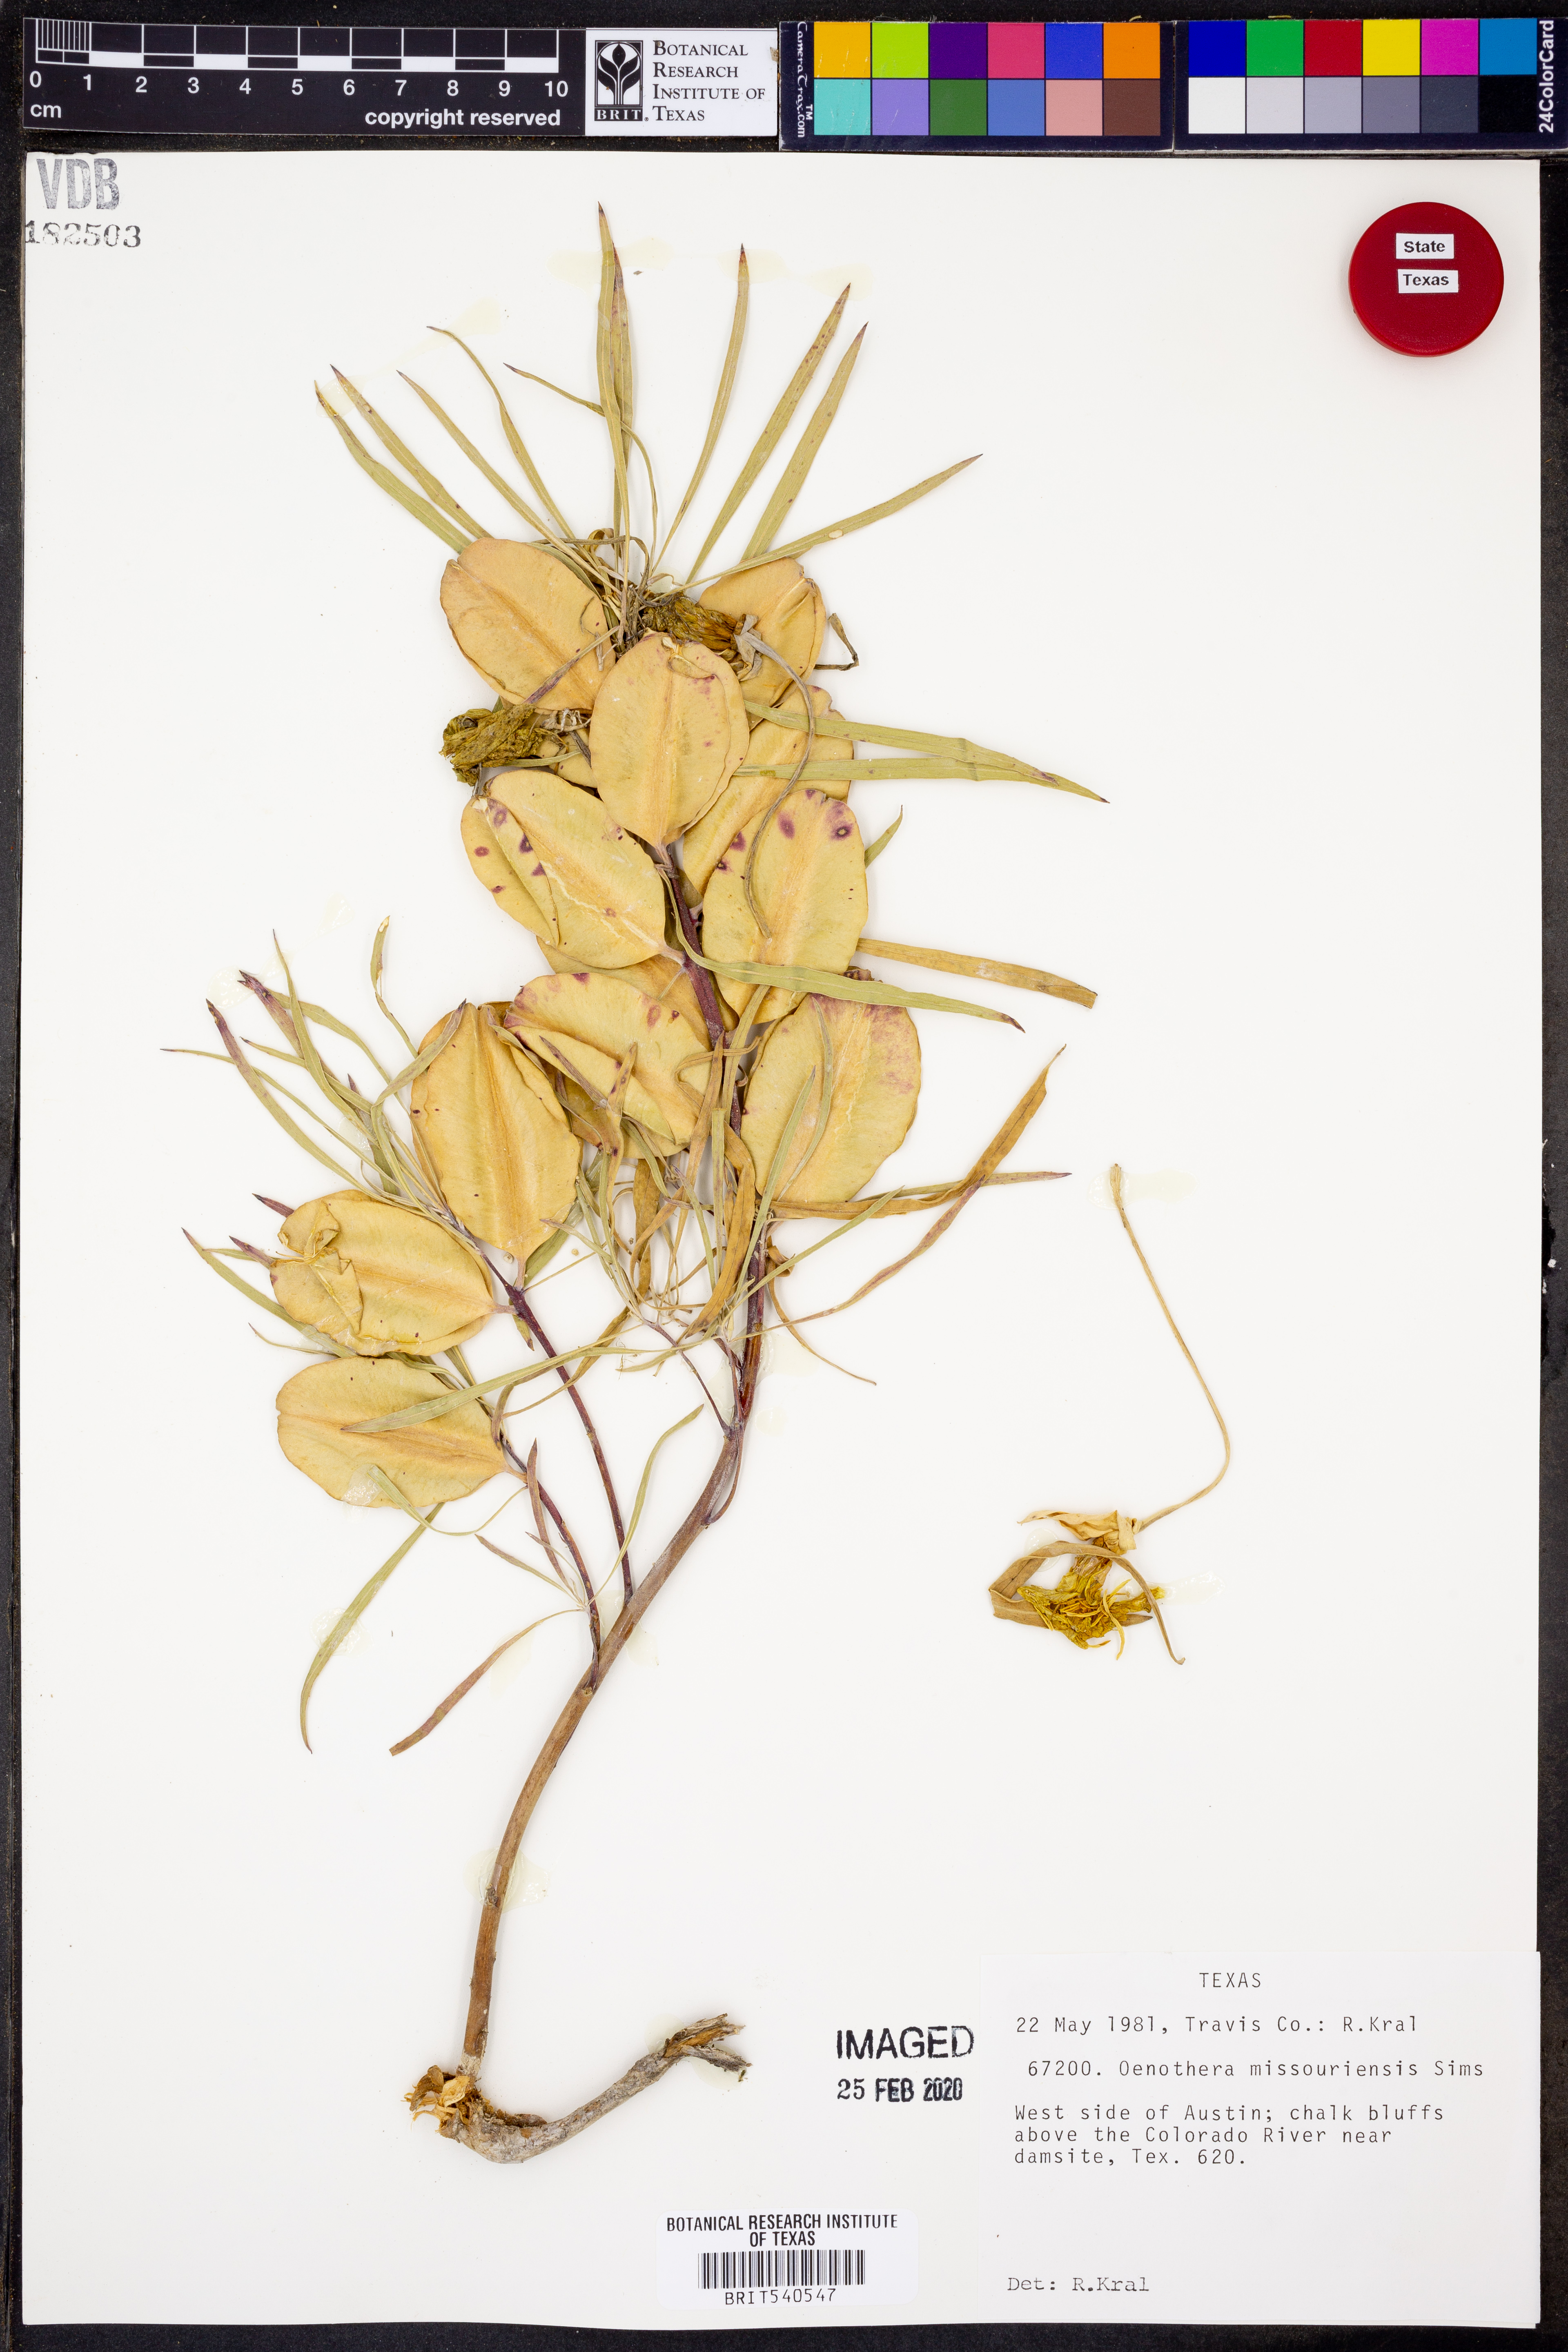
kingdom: Plantae
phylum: Tracheophyta
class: Magnoliopsida
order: Myrtales
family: Onagraceae
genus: Oenothera
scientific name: Oenothera macrocarpa
